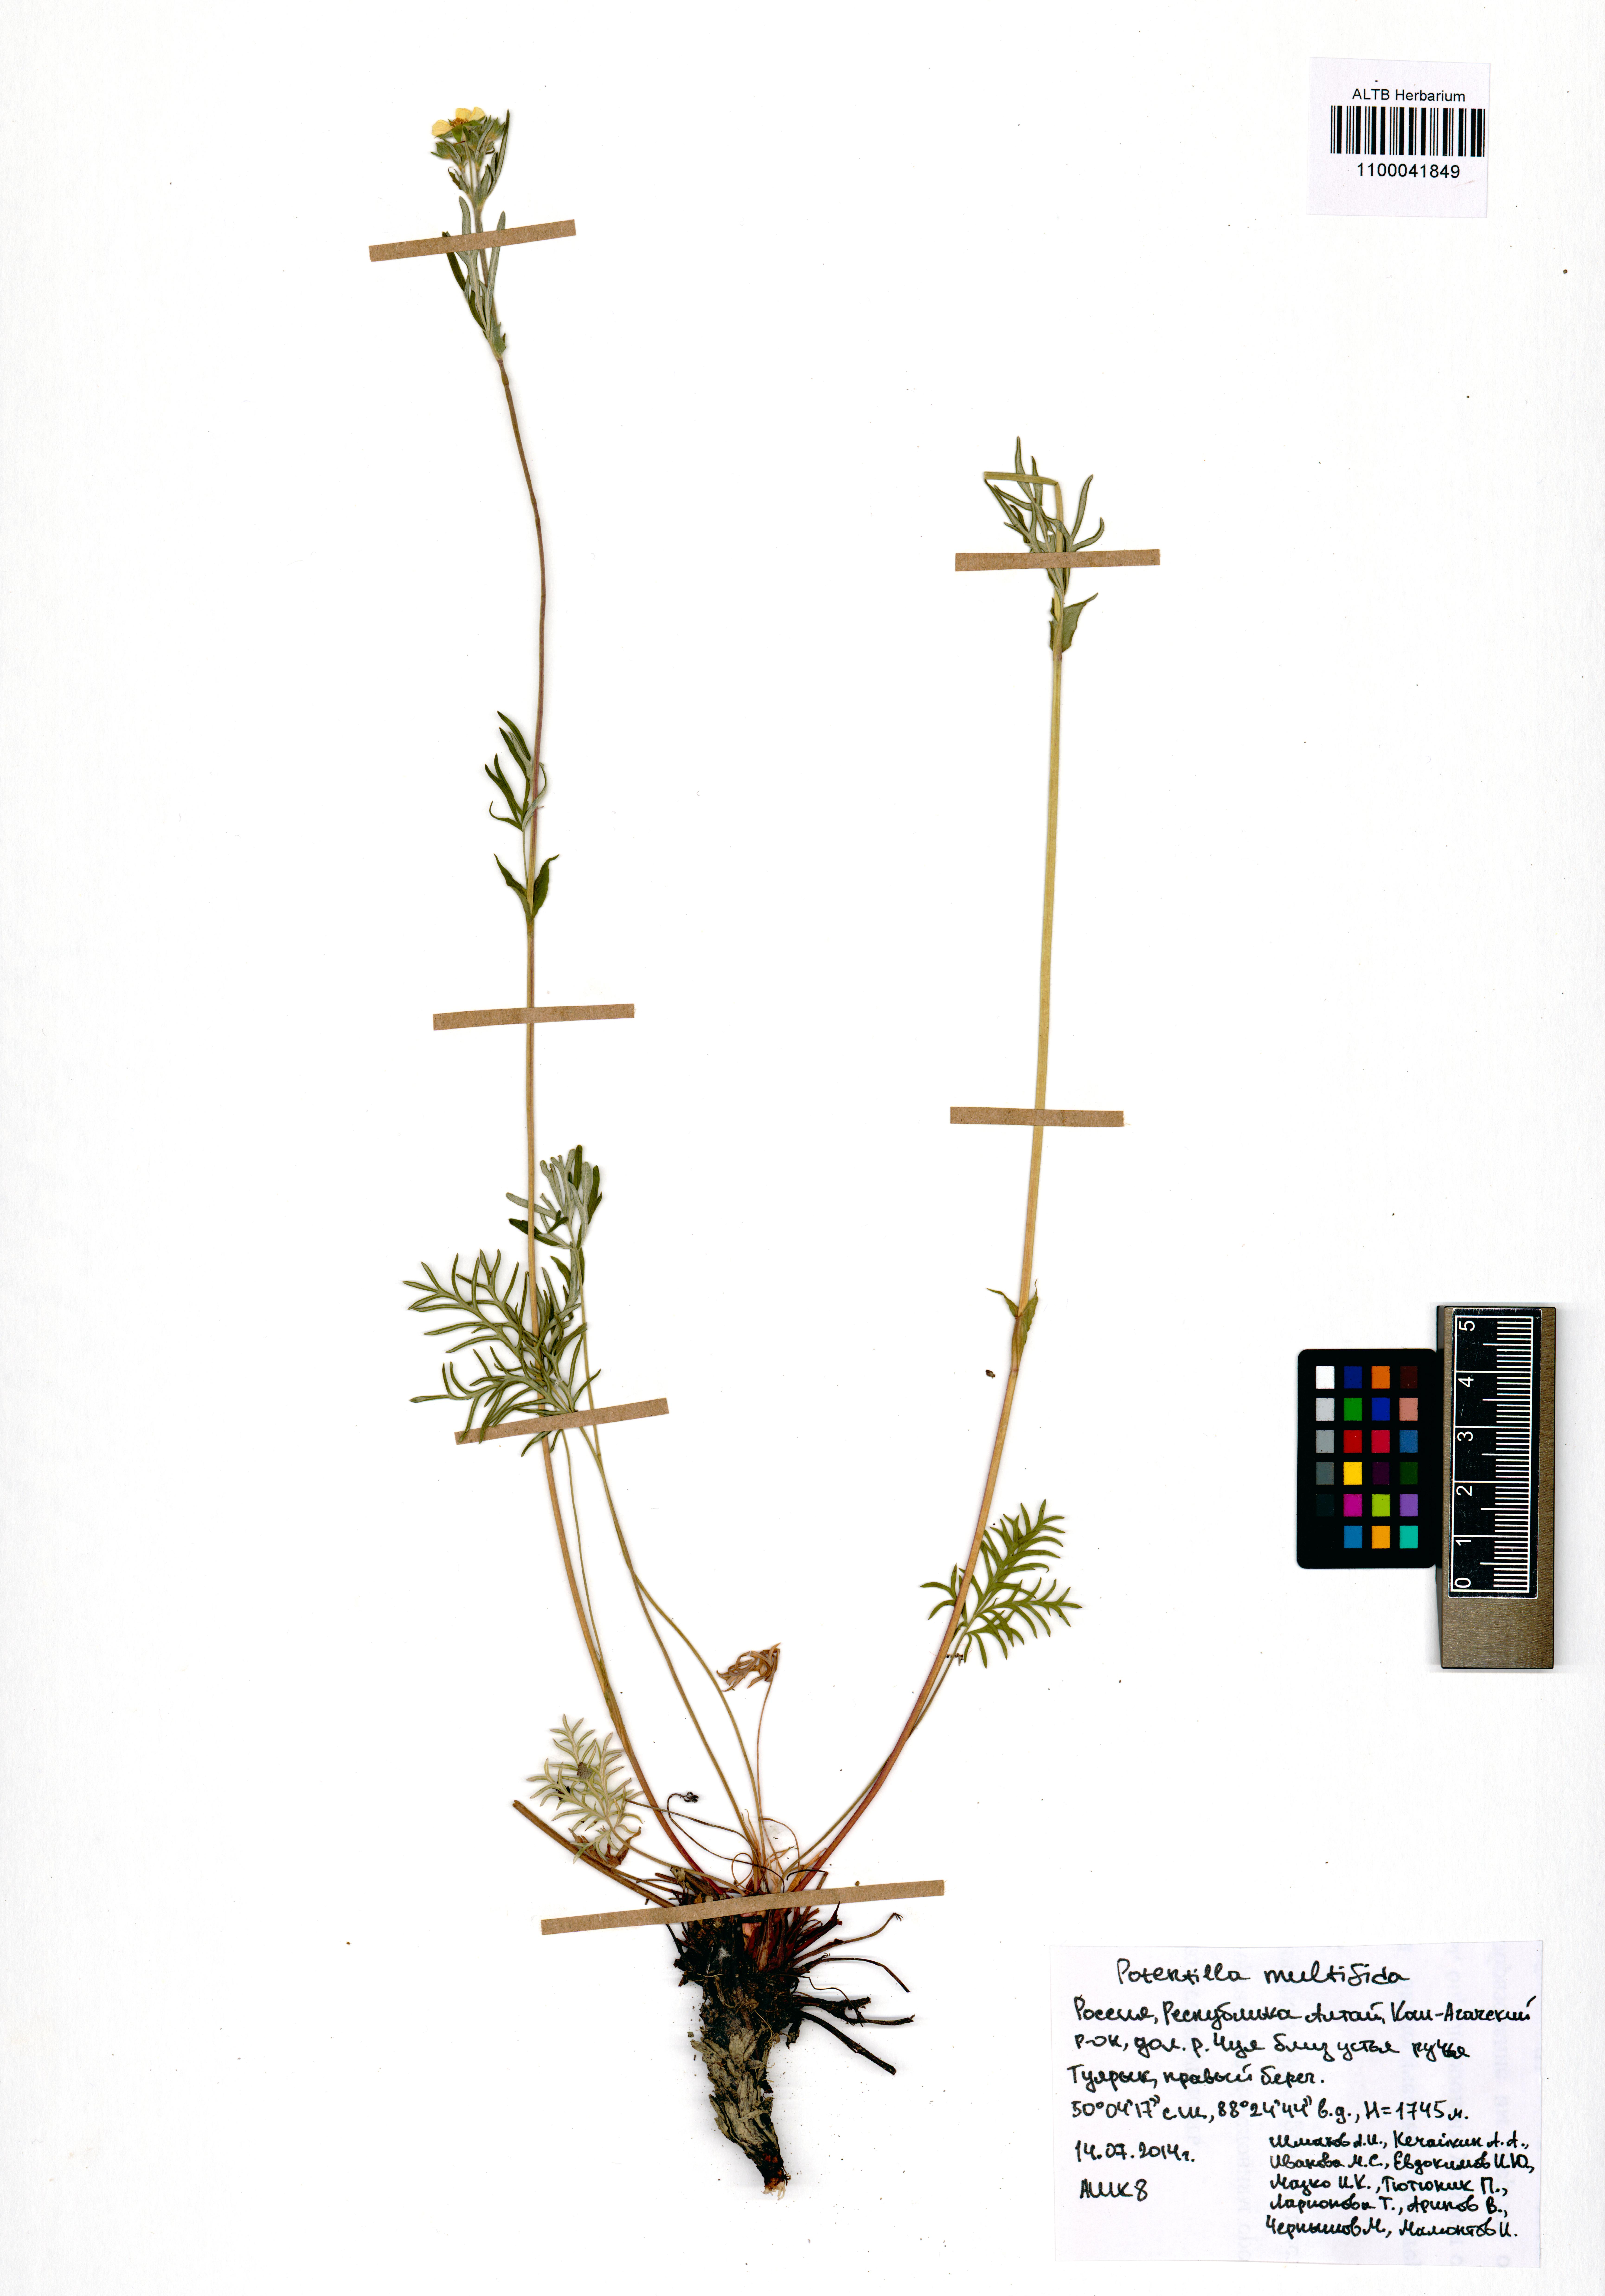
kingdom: Plantae
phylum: Tracheophyta
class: Magnoliopsida
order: Rosales
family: Rosaceae
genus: Potentilla
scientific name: Potentilla multifida
